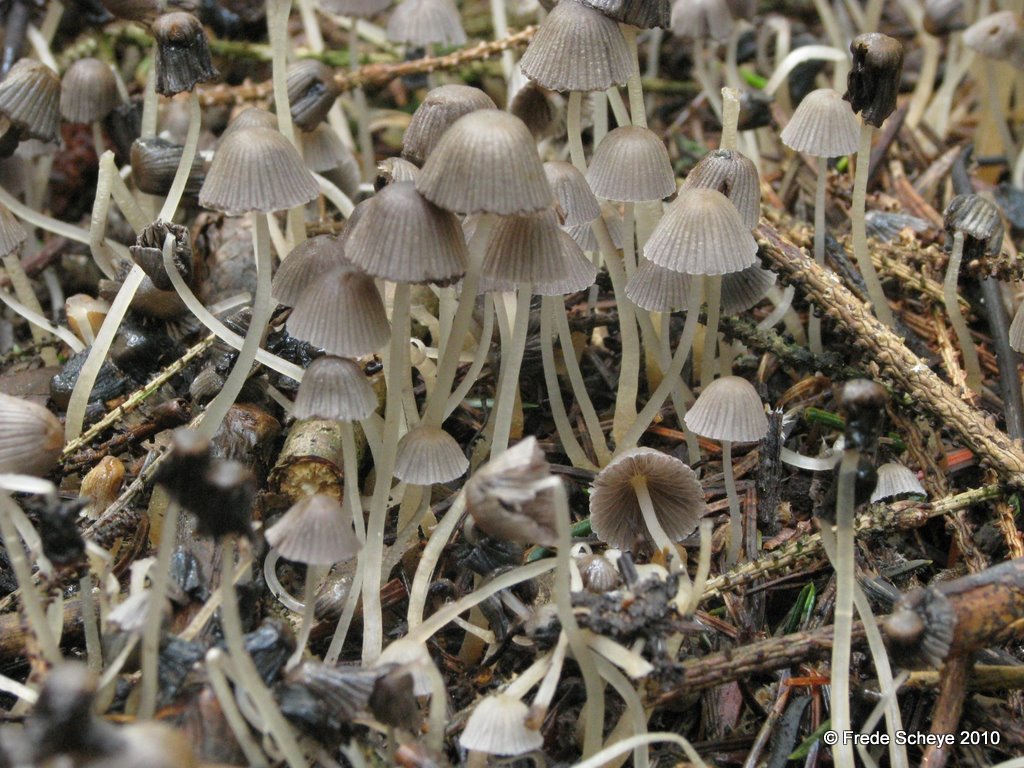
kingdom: Fungi
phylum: Basidiomycota
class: Agaricomycetes
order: Agaricales
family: Psathyrellaceae
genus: Coprinellus
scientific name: Coprinellus disseminatus
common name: bredsået blækhat
